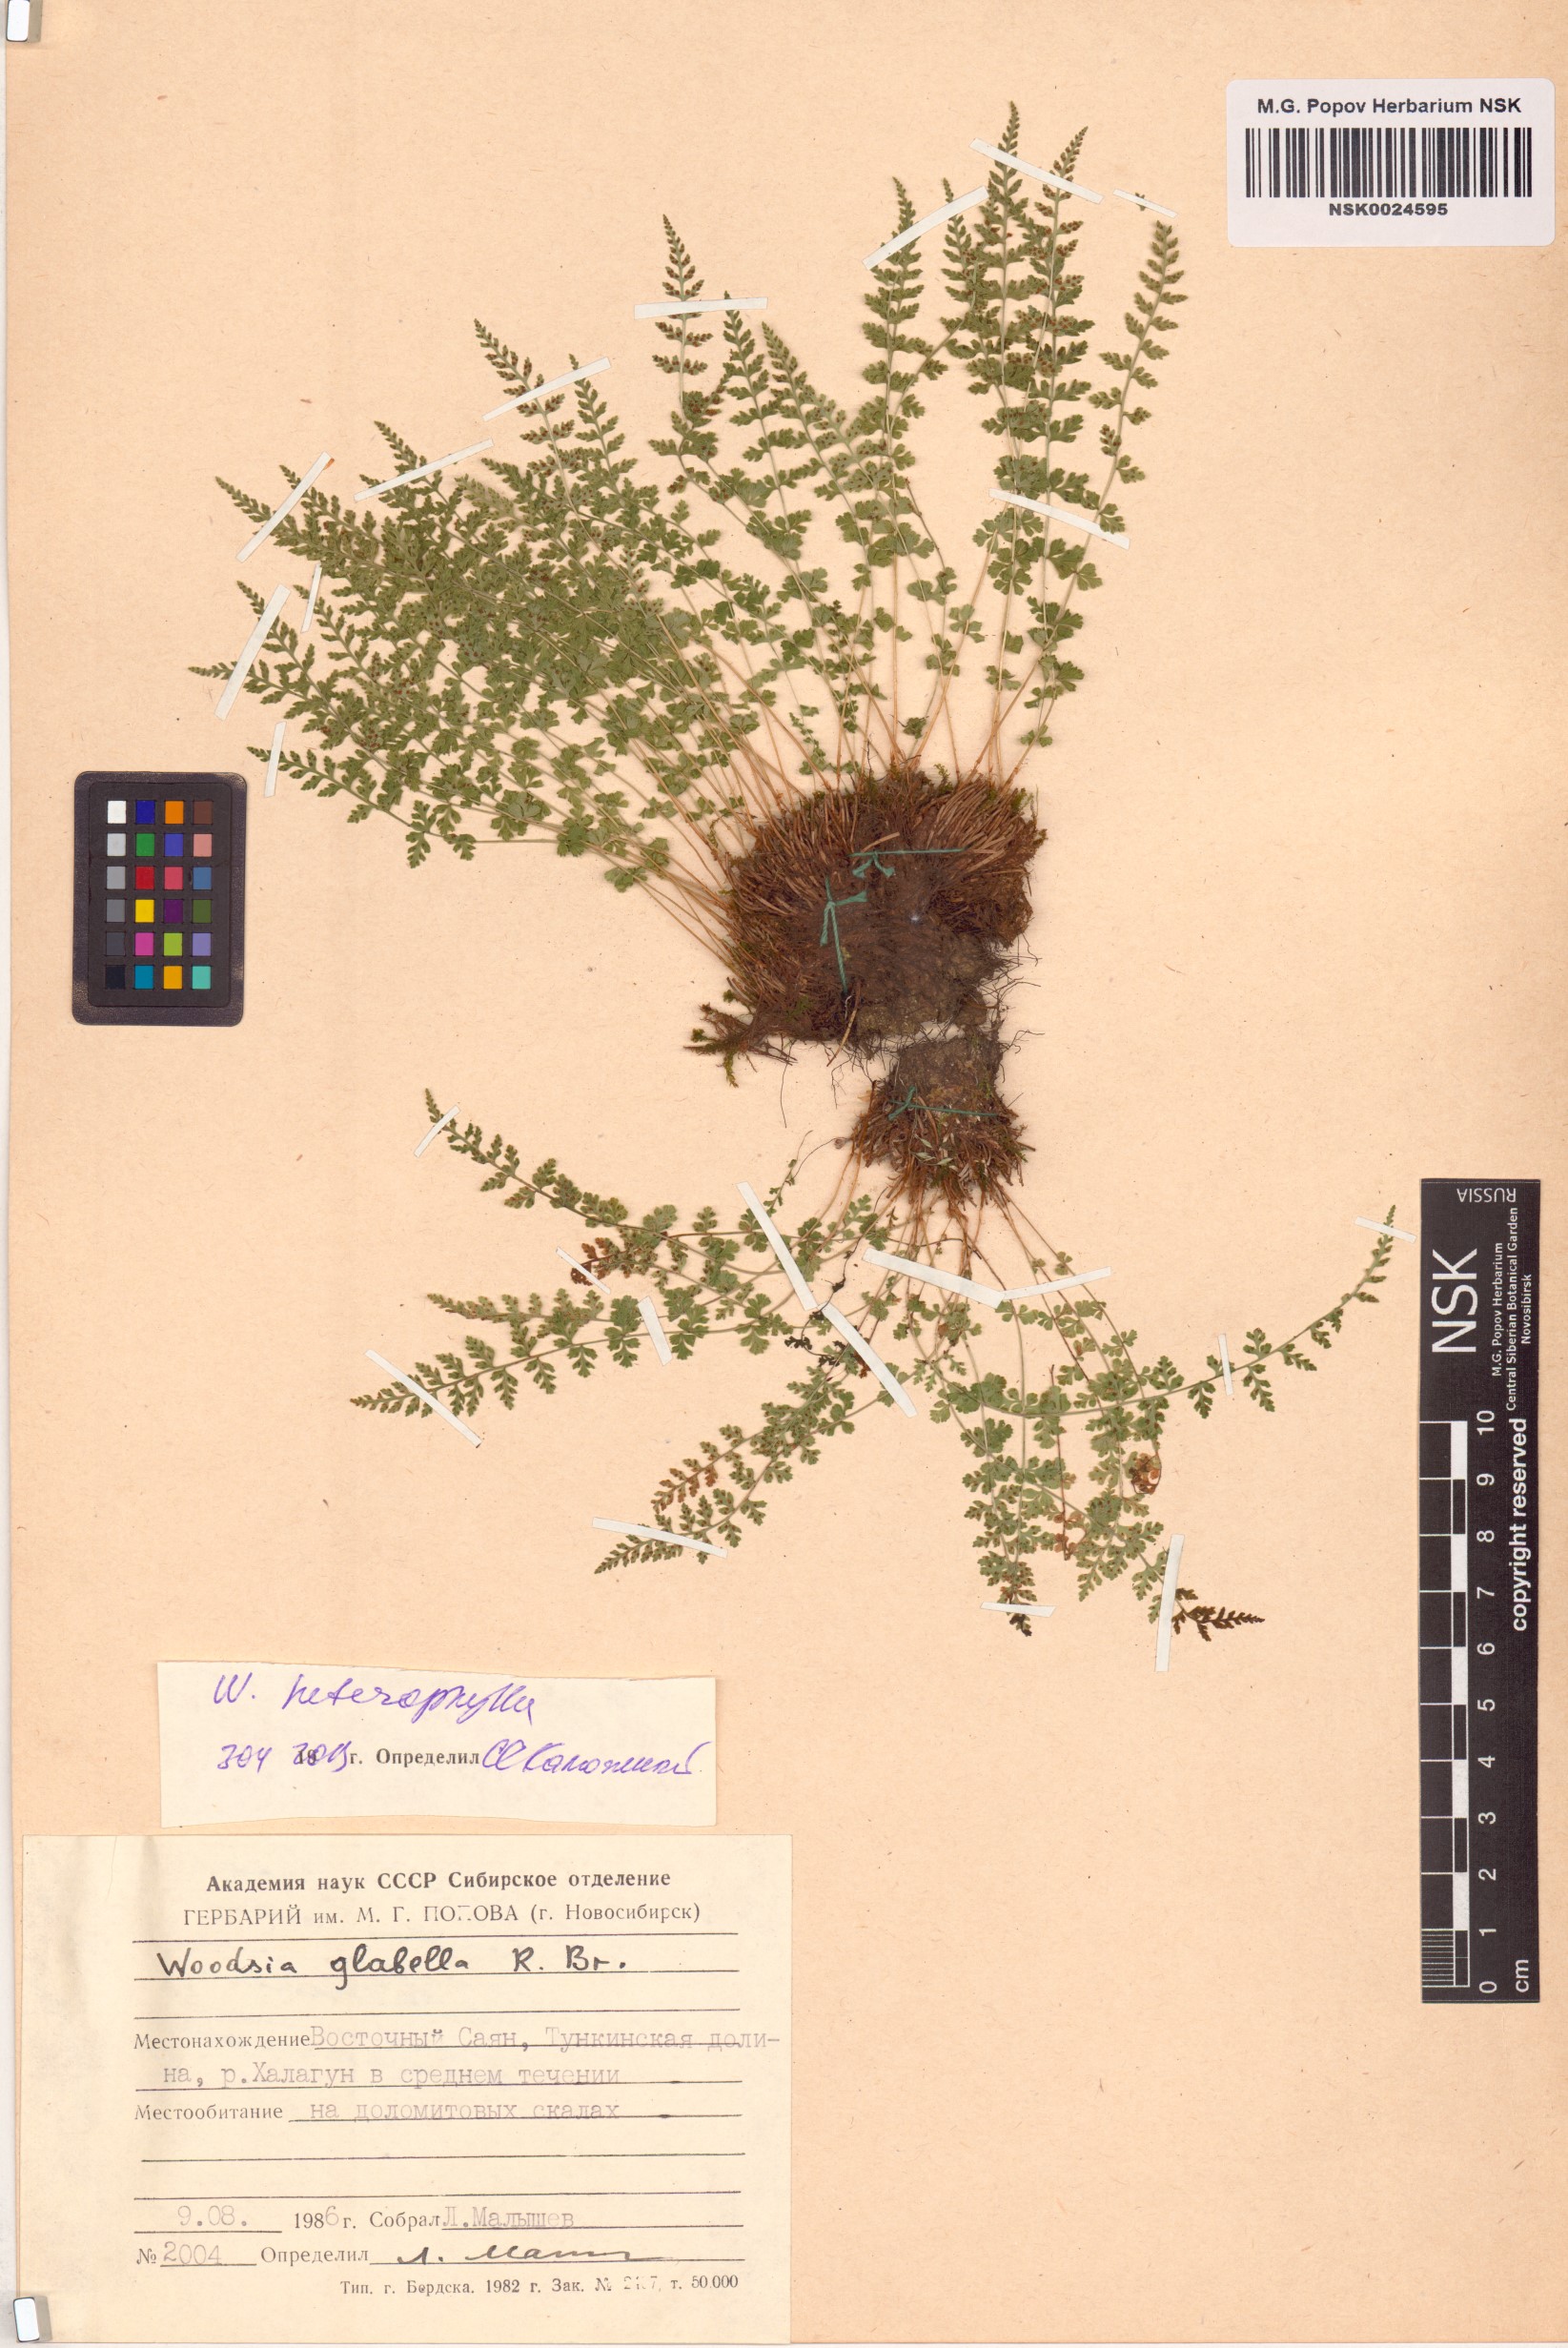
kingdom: Plantae
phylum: Tracheophyta
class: Polypodiopsida
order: Polypodiales
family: Woodsiaceae
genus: Woodsia
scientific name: Woodsia pulchella
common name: Graceful woodsia
